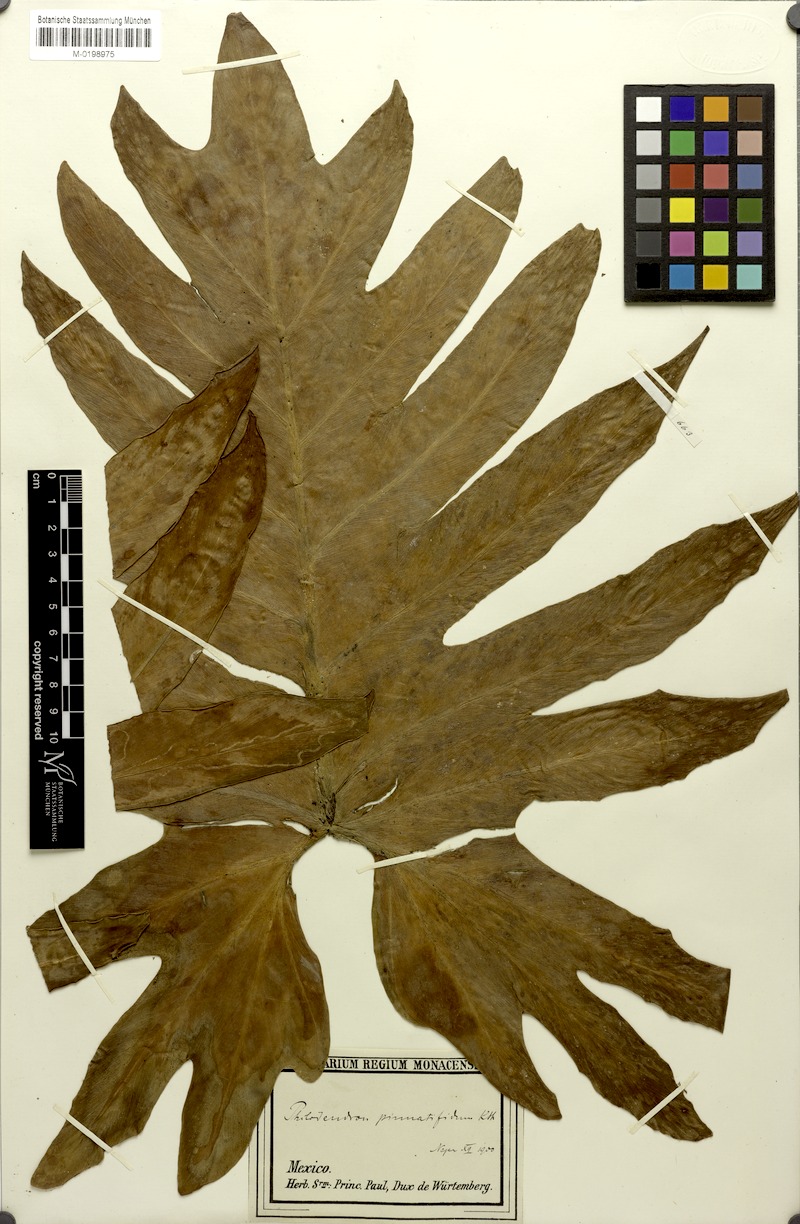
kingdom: Plantae
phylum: Tracheophyta
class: Liliopsida
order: Alismatales
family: Araceae
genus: Philodendron
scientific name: Philodendron radiatum
